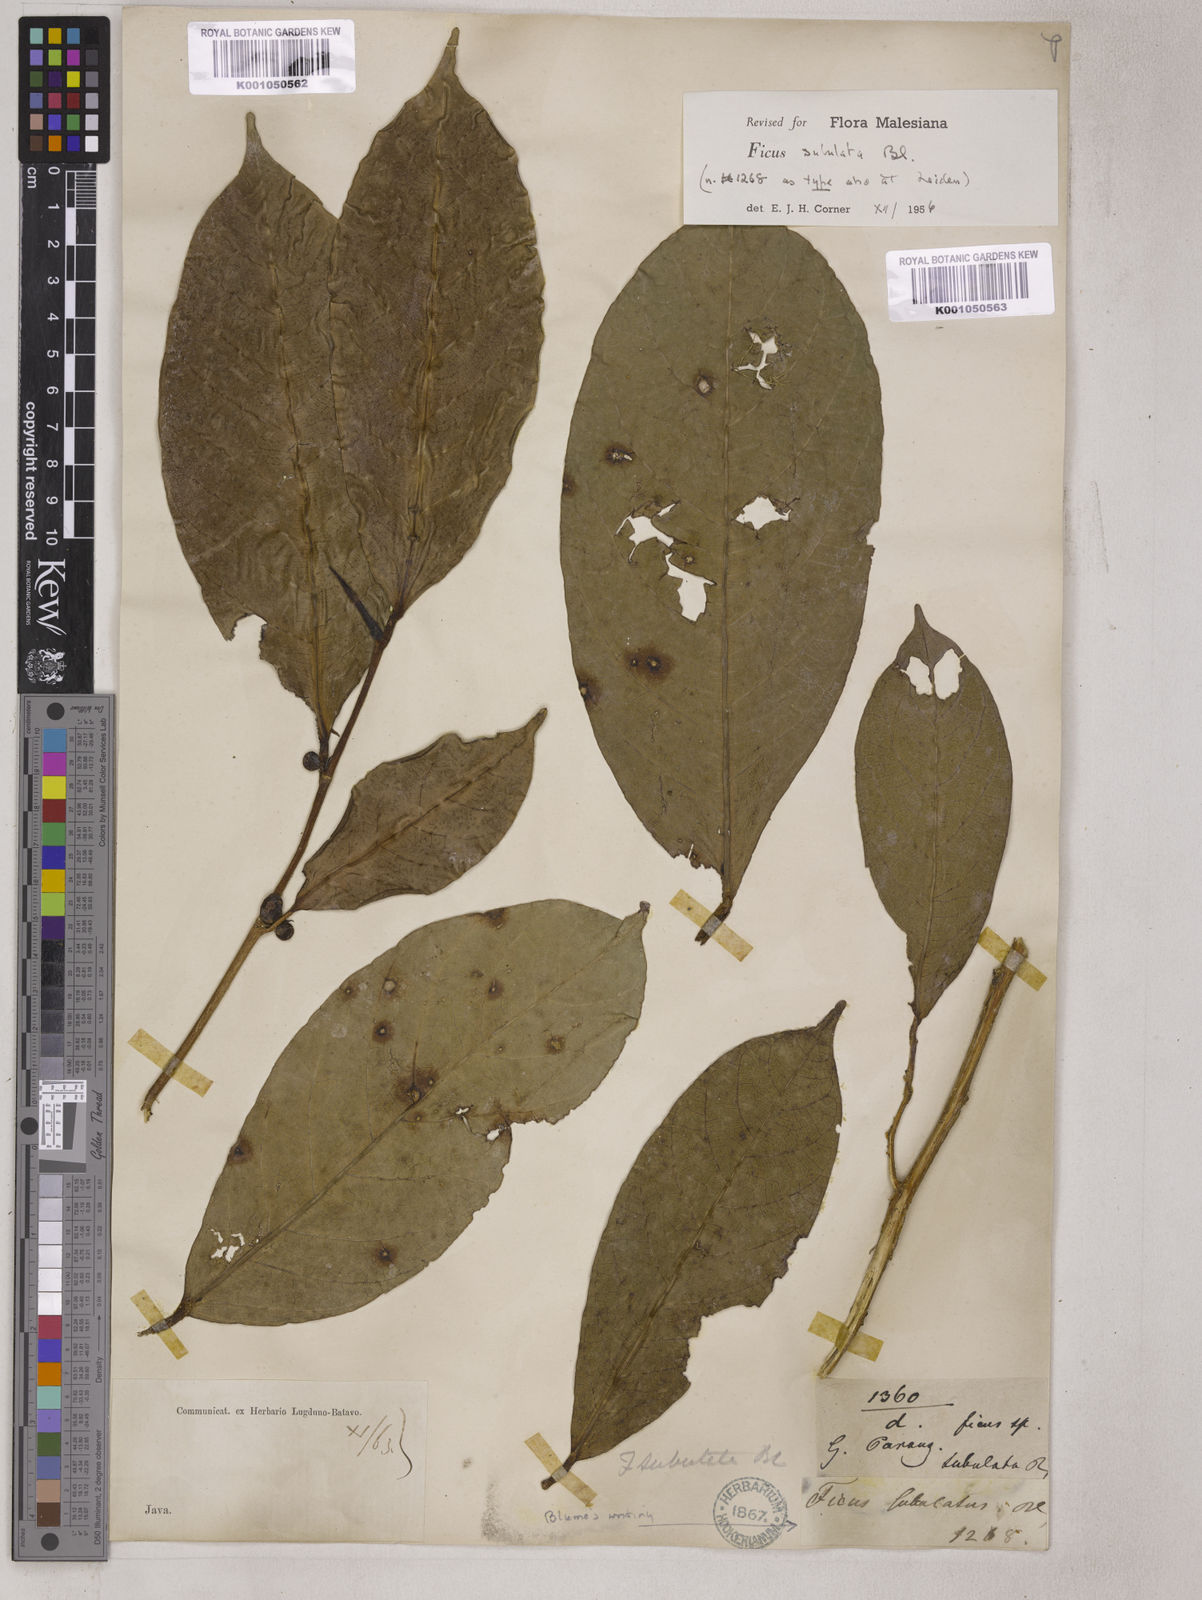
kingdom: Plantae
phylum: Tracheophyta
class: Magnoliopsida
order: Rosales
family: Moraceae
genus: Ficus
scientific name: Ficus subulata
